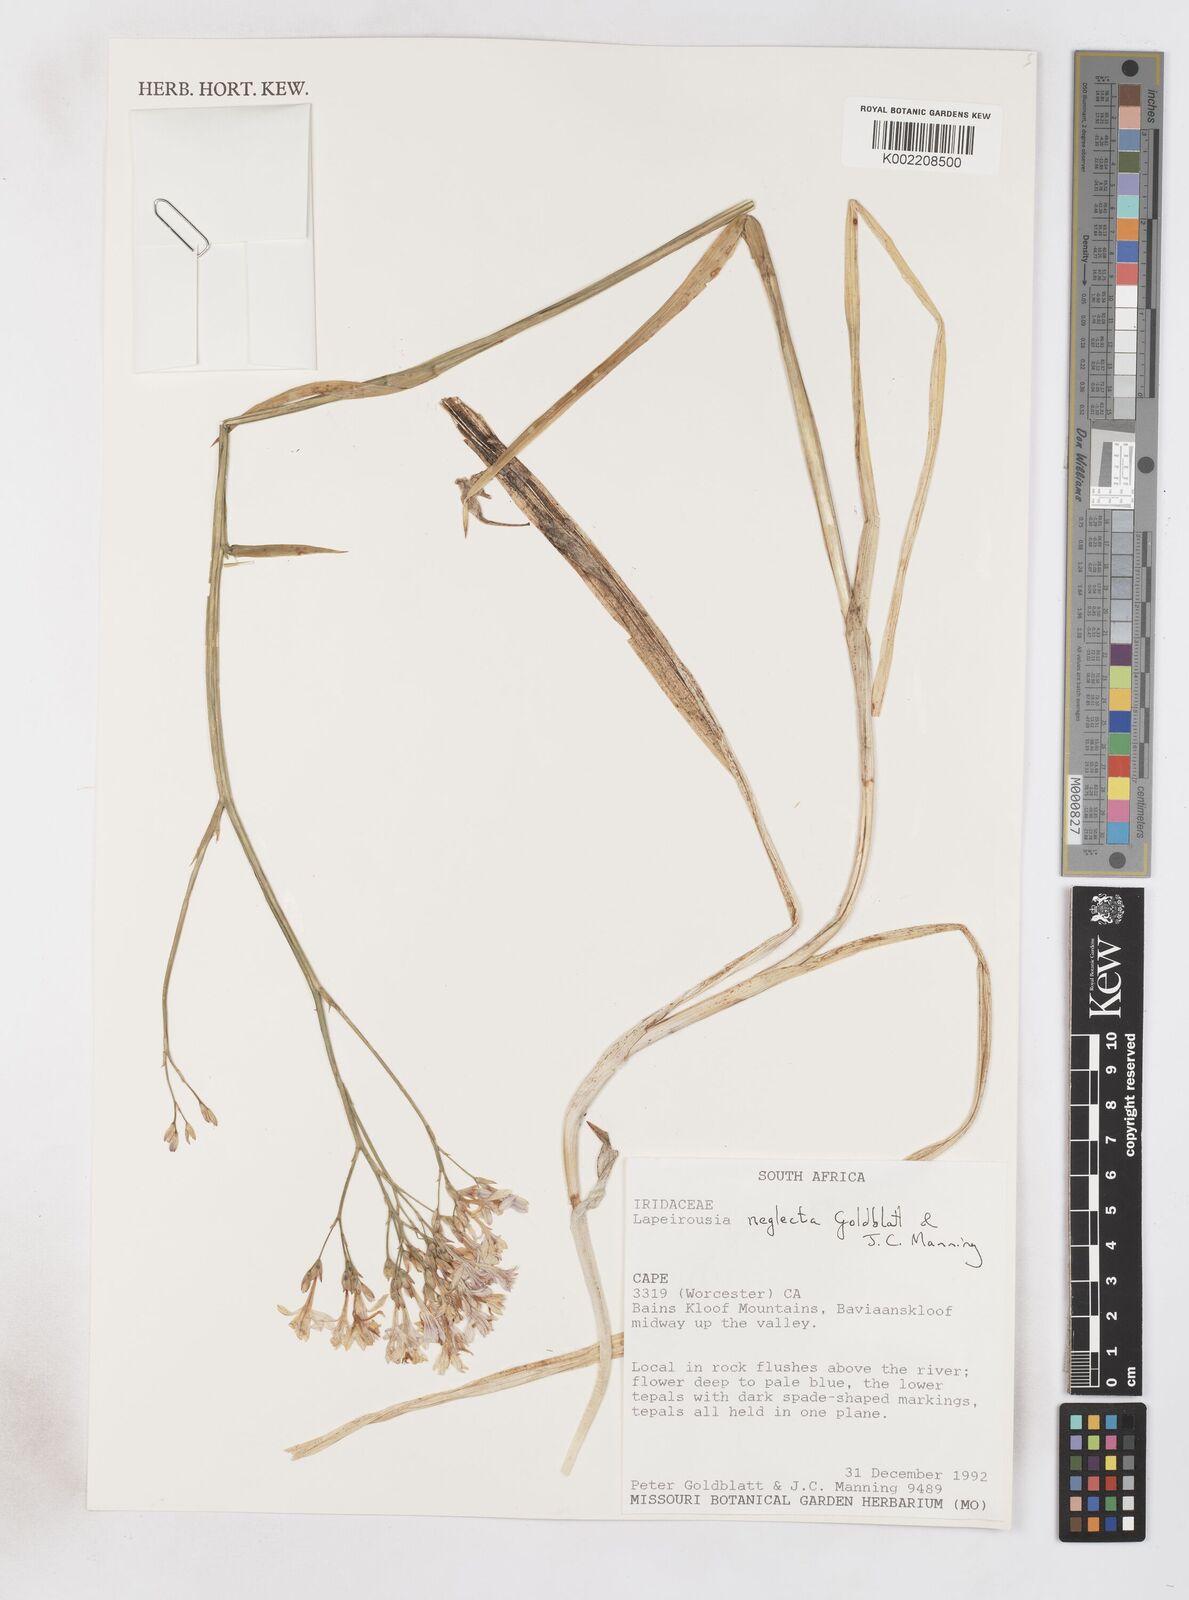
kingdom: Plantae
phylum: Tracheophyta
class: Liliopsida
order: Asparagales
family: Iridaceae
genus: Schizorhiza
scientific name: Schizorhiza neglecta
